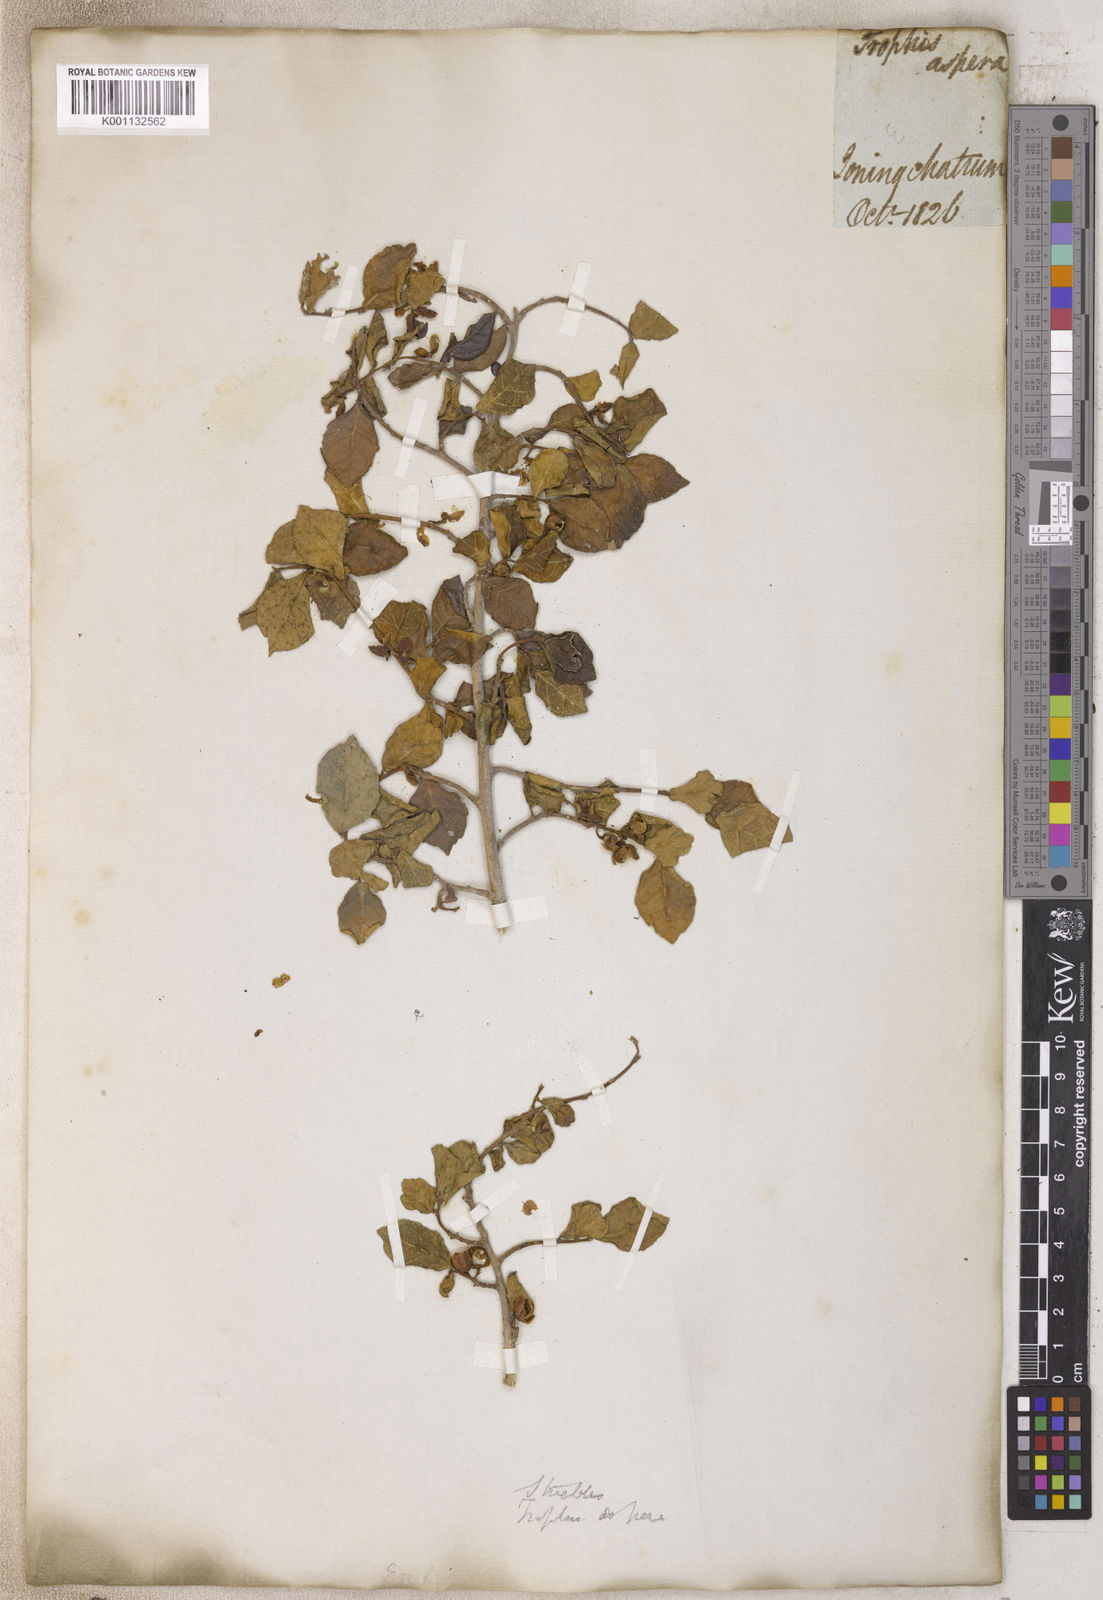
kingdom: Plantae
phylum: Tracheophyta
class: Magnoliopsida
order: Rosales
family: Moraceae
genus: Streblus
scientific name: Streblus
